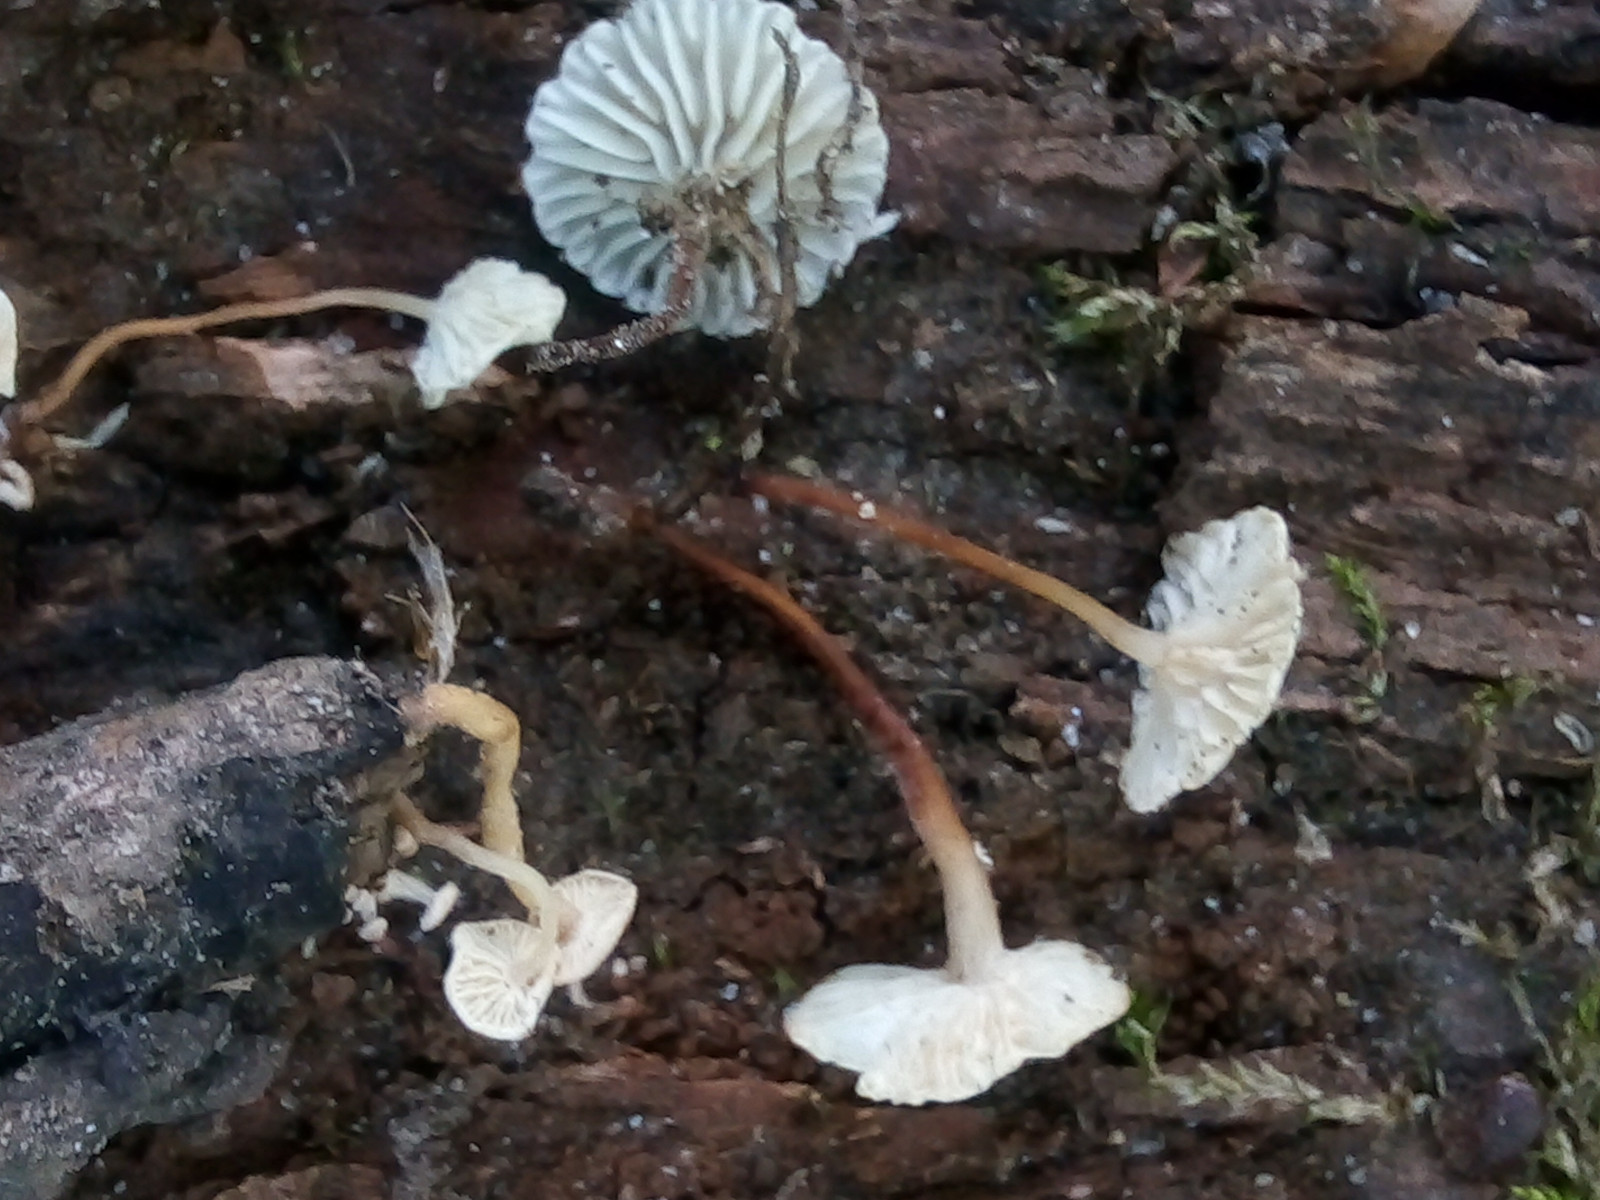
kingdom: Fungi
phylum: Basidiomycota
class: Agaricomycetes
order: Agaricales
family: Omphalotaceae
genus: Collybiopsis
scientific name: Collybiopsis vaillantii
